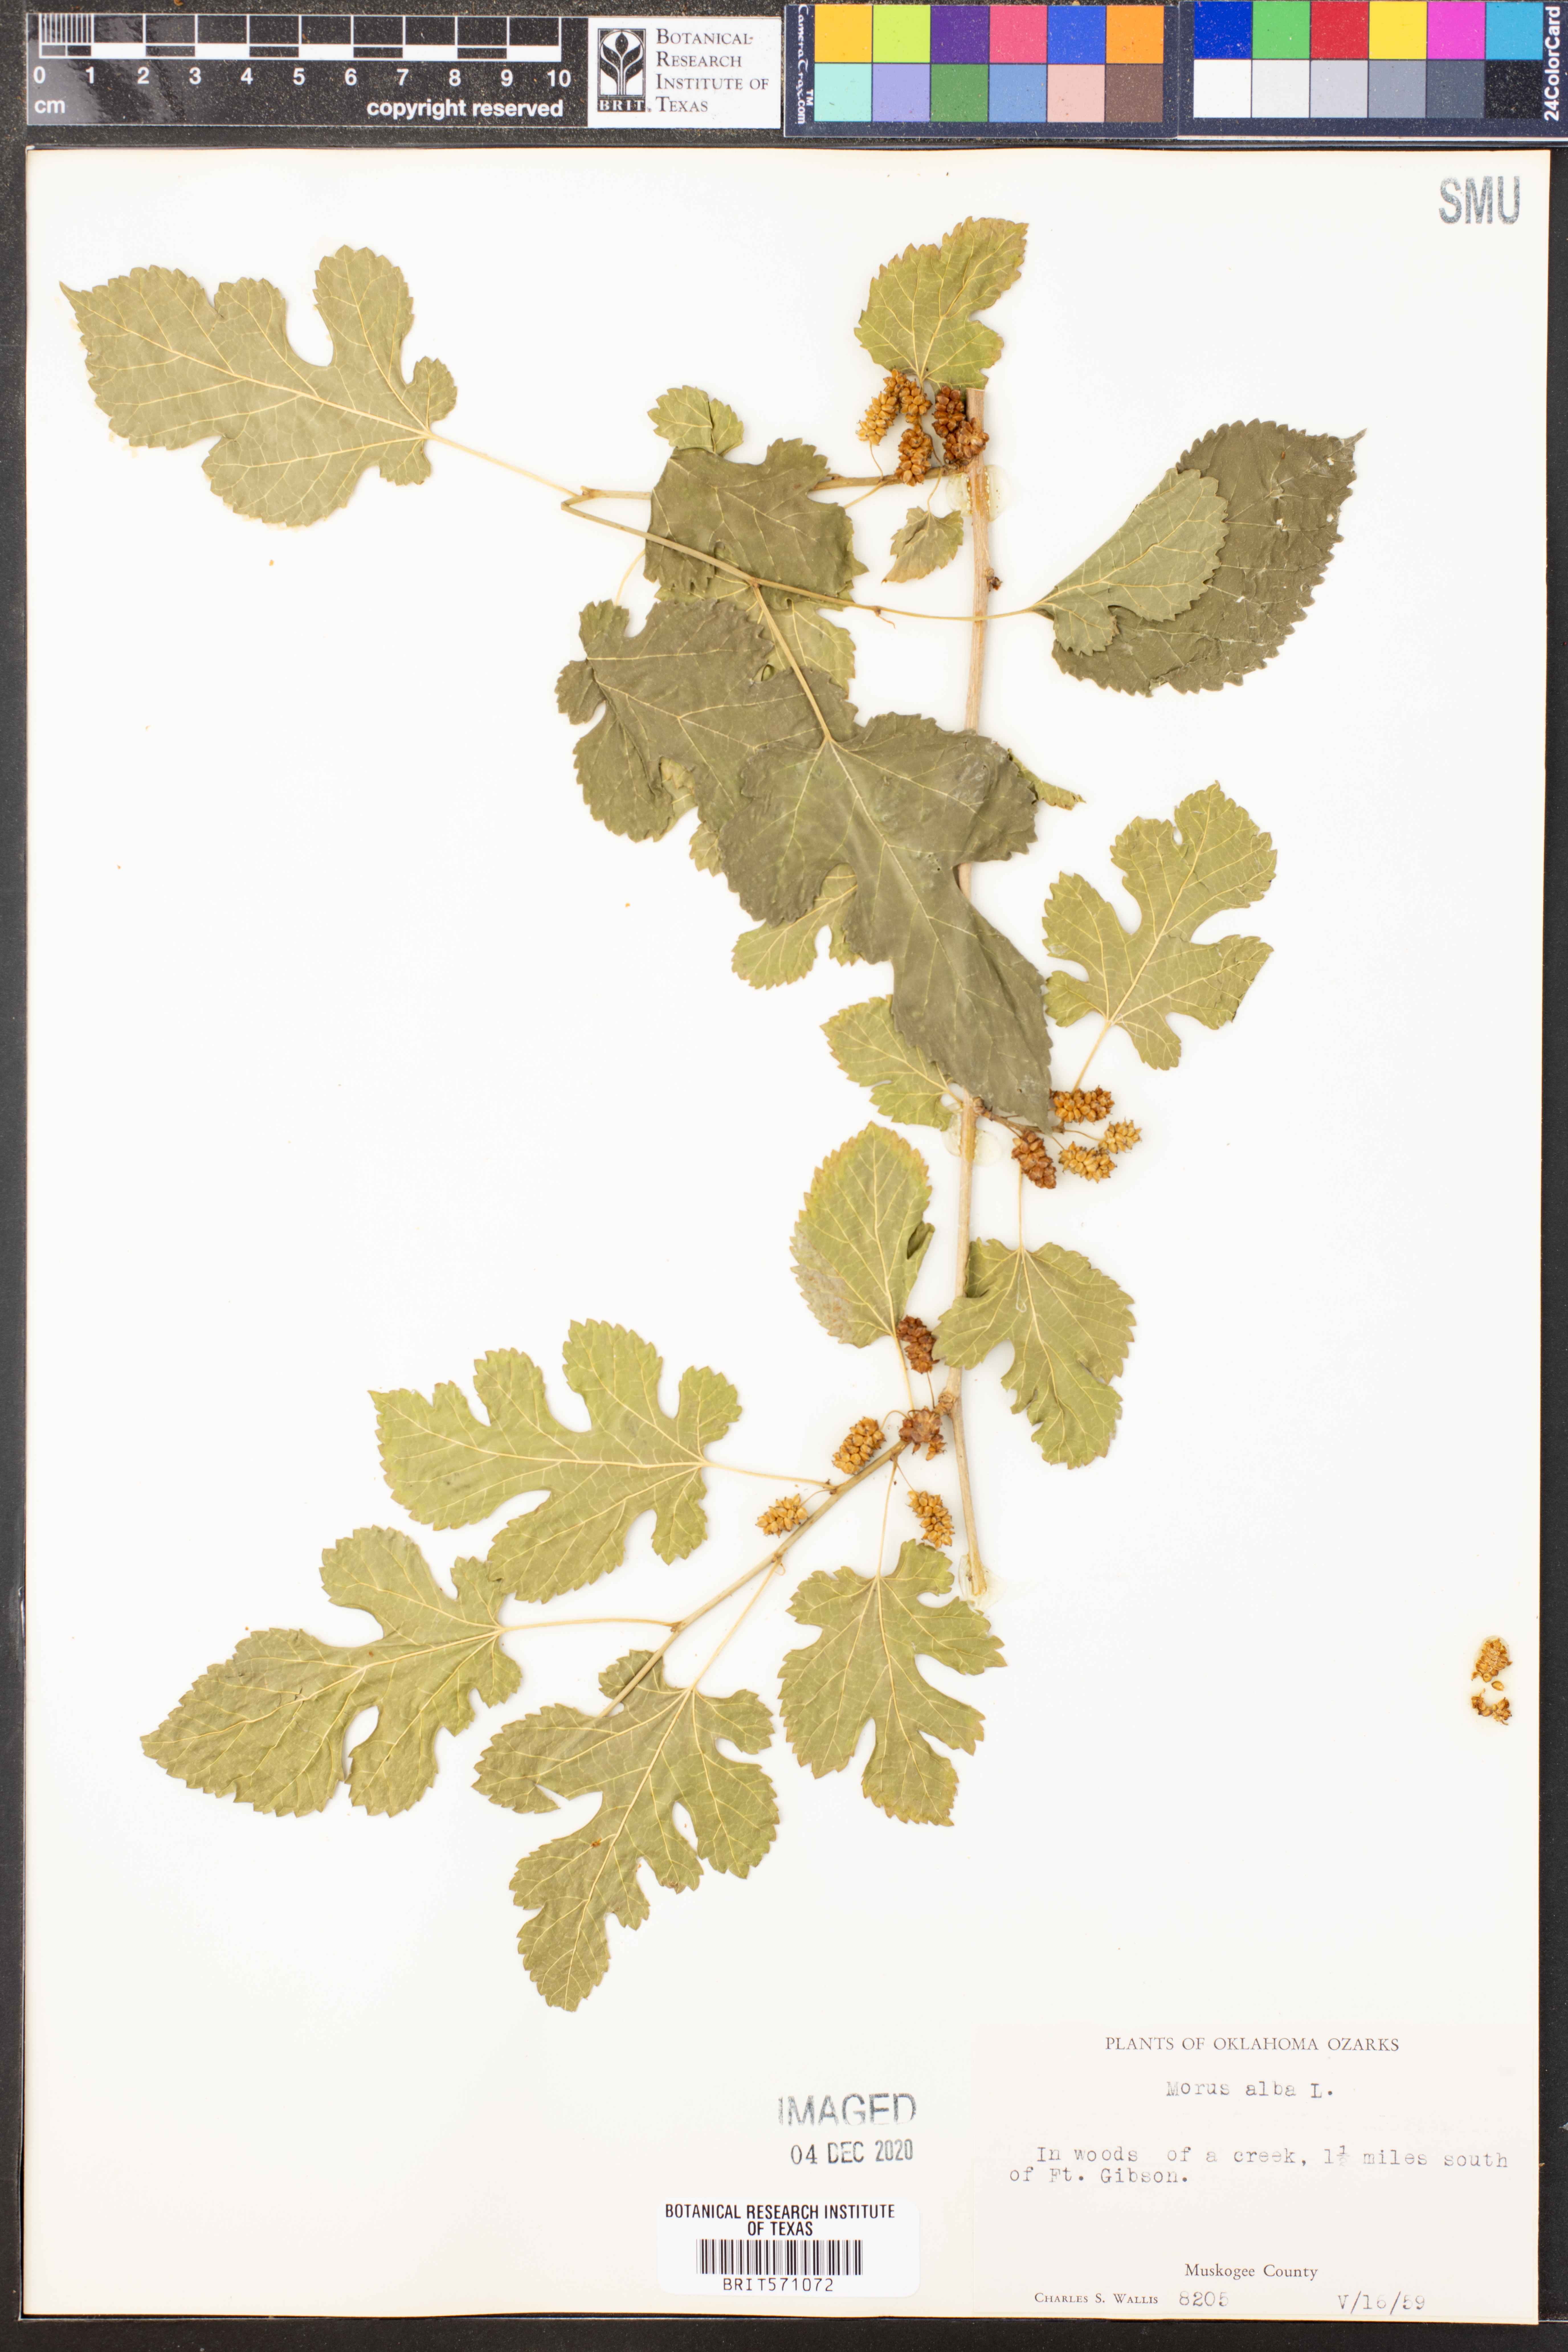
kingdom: Plantae
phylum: Tracheophyta
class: Magnoliopsida
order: Rosales
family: Moraceae
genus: Morus
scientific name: Morus alba
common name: White mulberry
